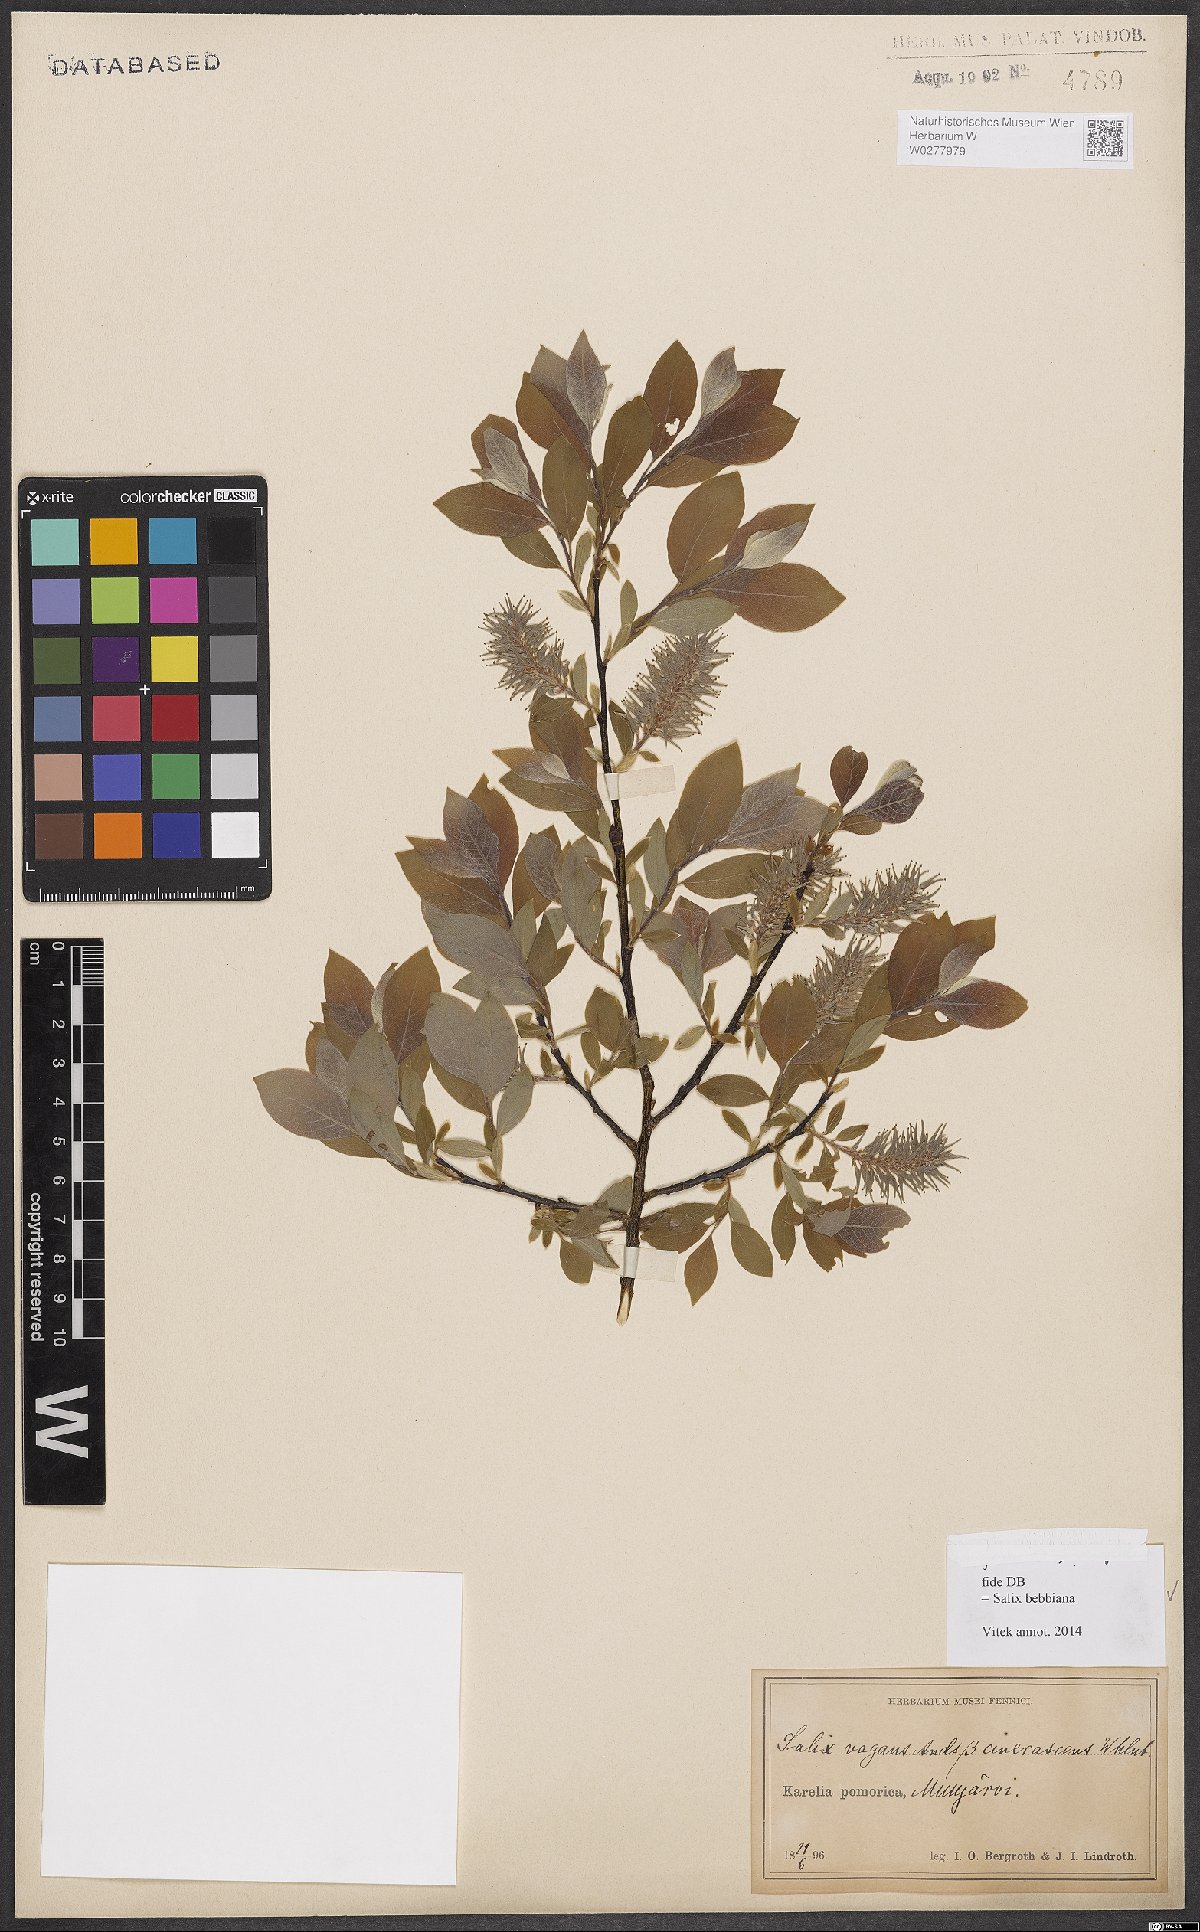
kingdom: Plantae
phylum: Tracheophyta
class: Magnoliopsida
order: Malpighiales
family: Salicaceae
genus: Salix
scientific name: Salix bebbiana
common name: Bebb's willow
